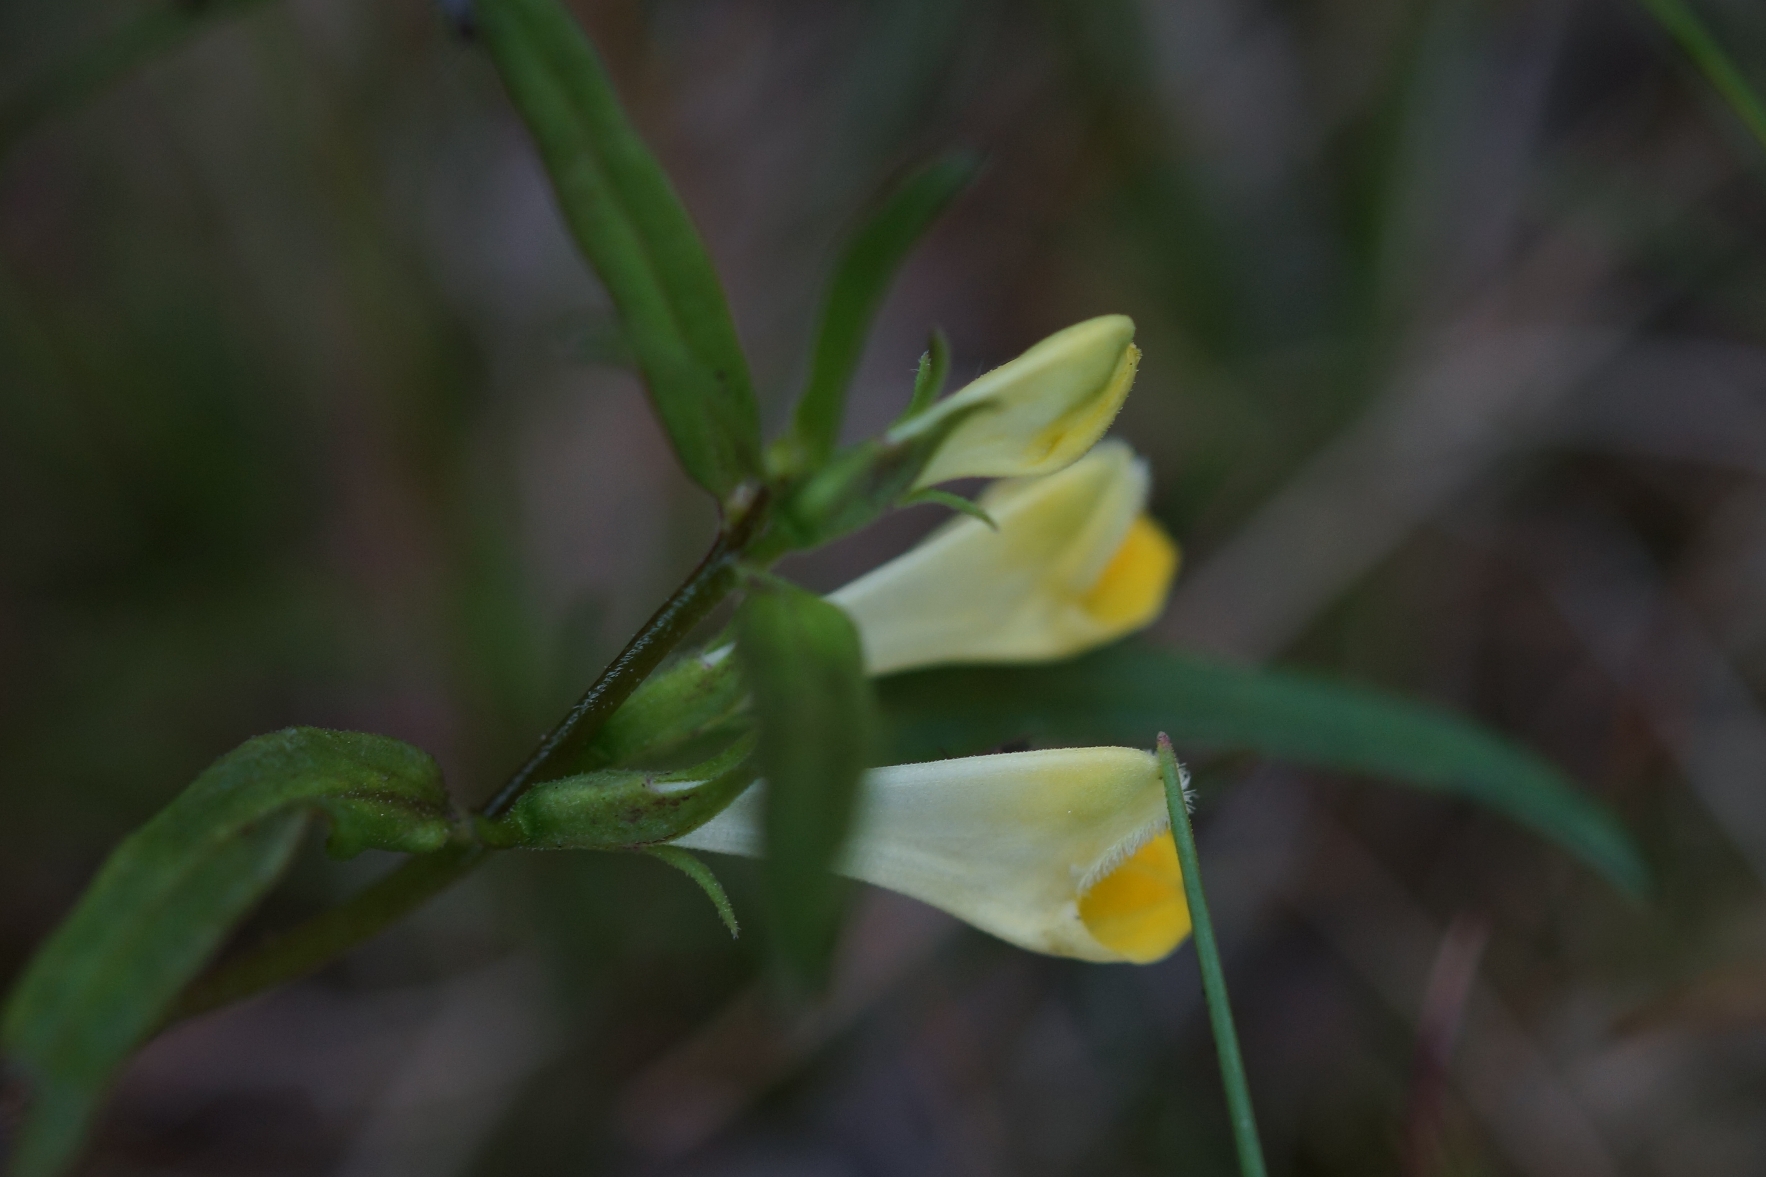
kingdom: Plantae
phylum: Tracheophyta
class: Magnoliopsida
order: Lamiales
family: Orobanchaceae
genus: Melampyrum
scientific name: Melampyrum pratense
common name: Almindelig kohvede
